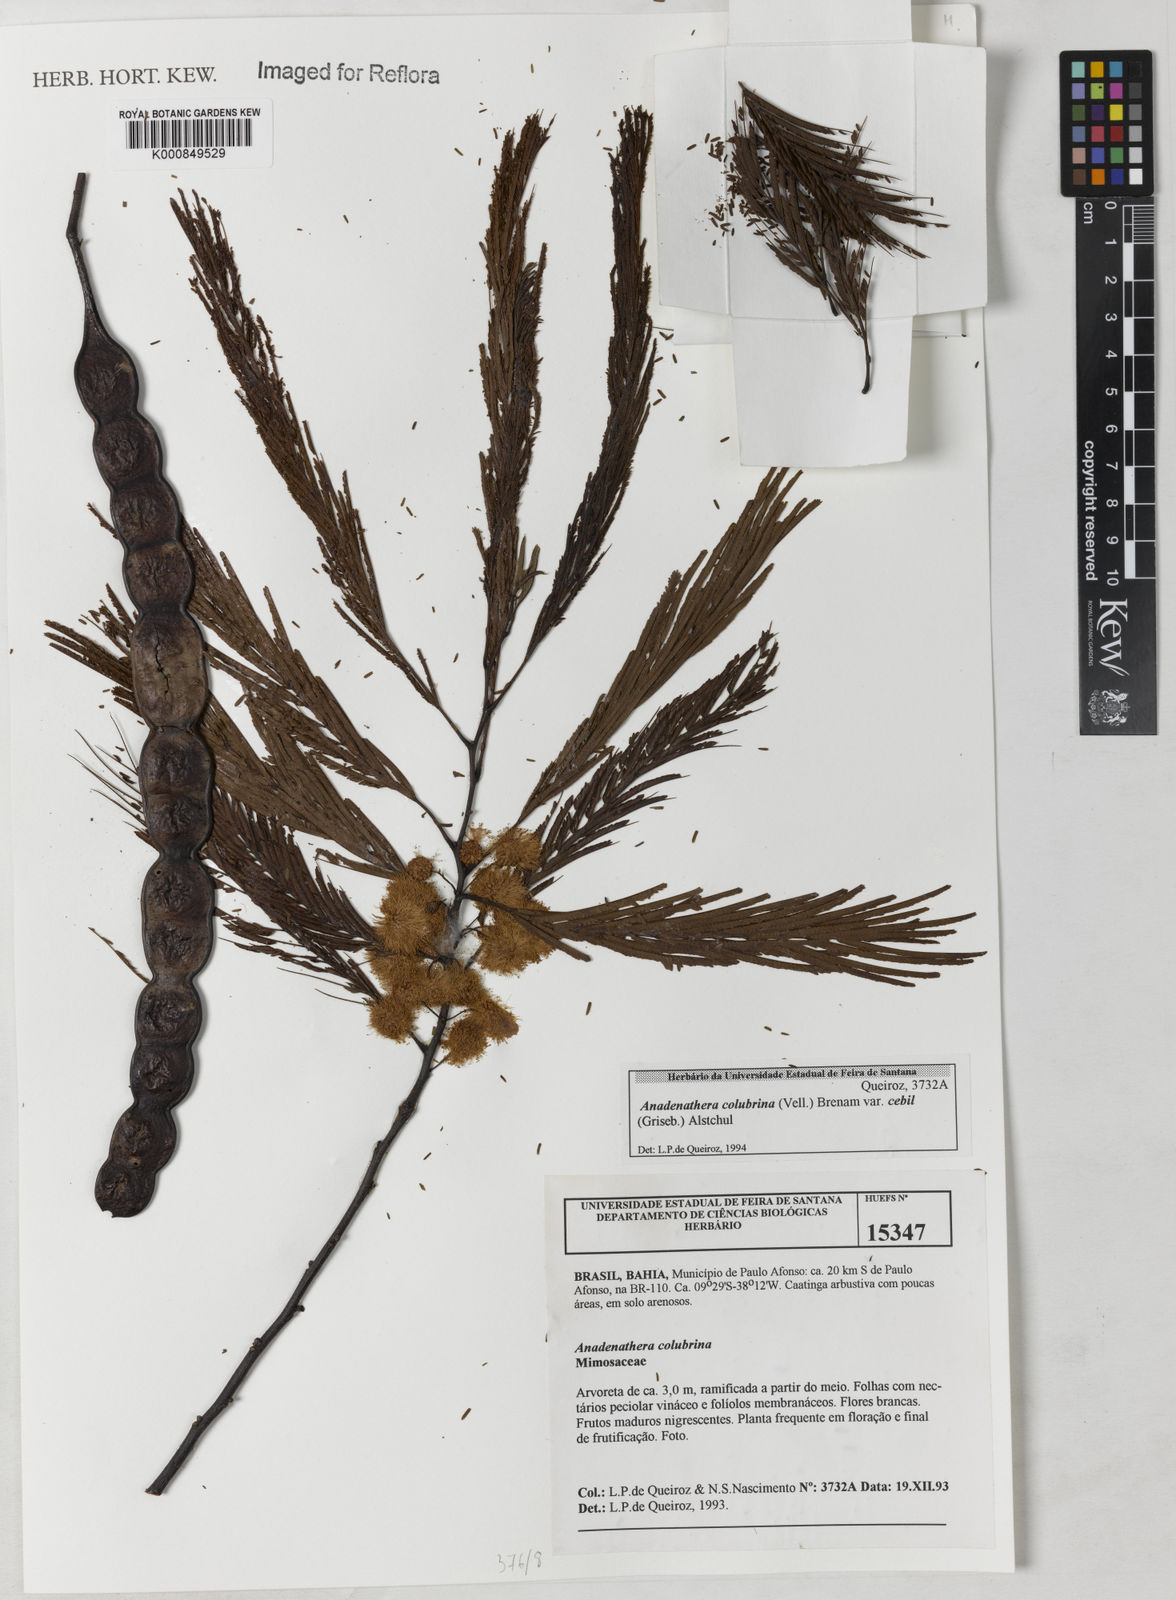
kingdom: Plantae
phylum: Tracheophyta
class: Magnoliopsida
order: Fabales
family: Fabaceae
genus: Anadenanthera
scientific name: Anadenanthera colubrina
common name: Curupay
